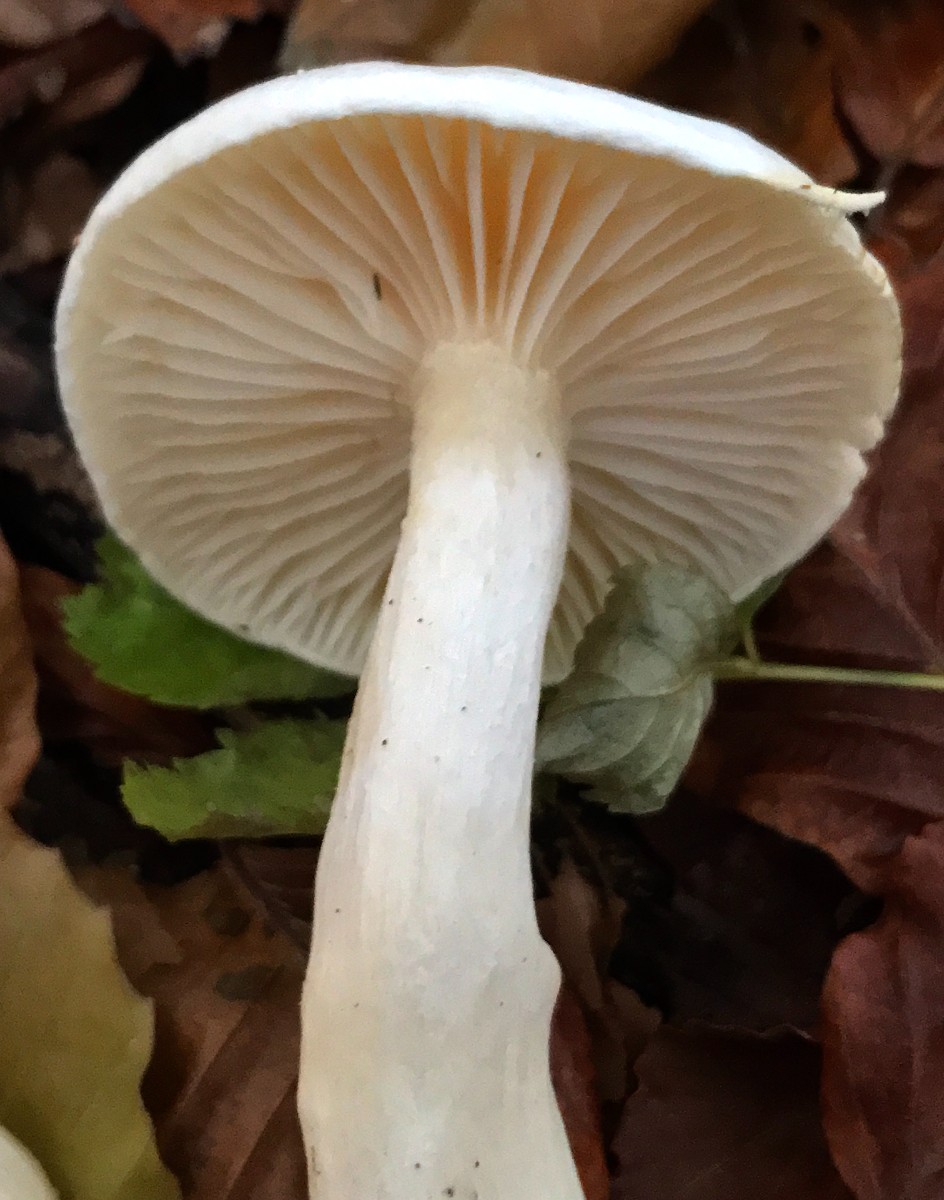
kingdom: Fungi
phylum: Basidiomycota
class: Agaricomycetes
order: Agaricales
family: Hygrophoraceae
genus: Hygrophorus
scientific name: Hygrophorus eburneus
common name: elfenbens-sneglehat
